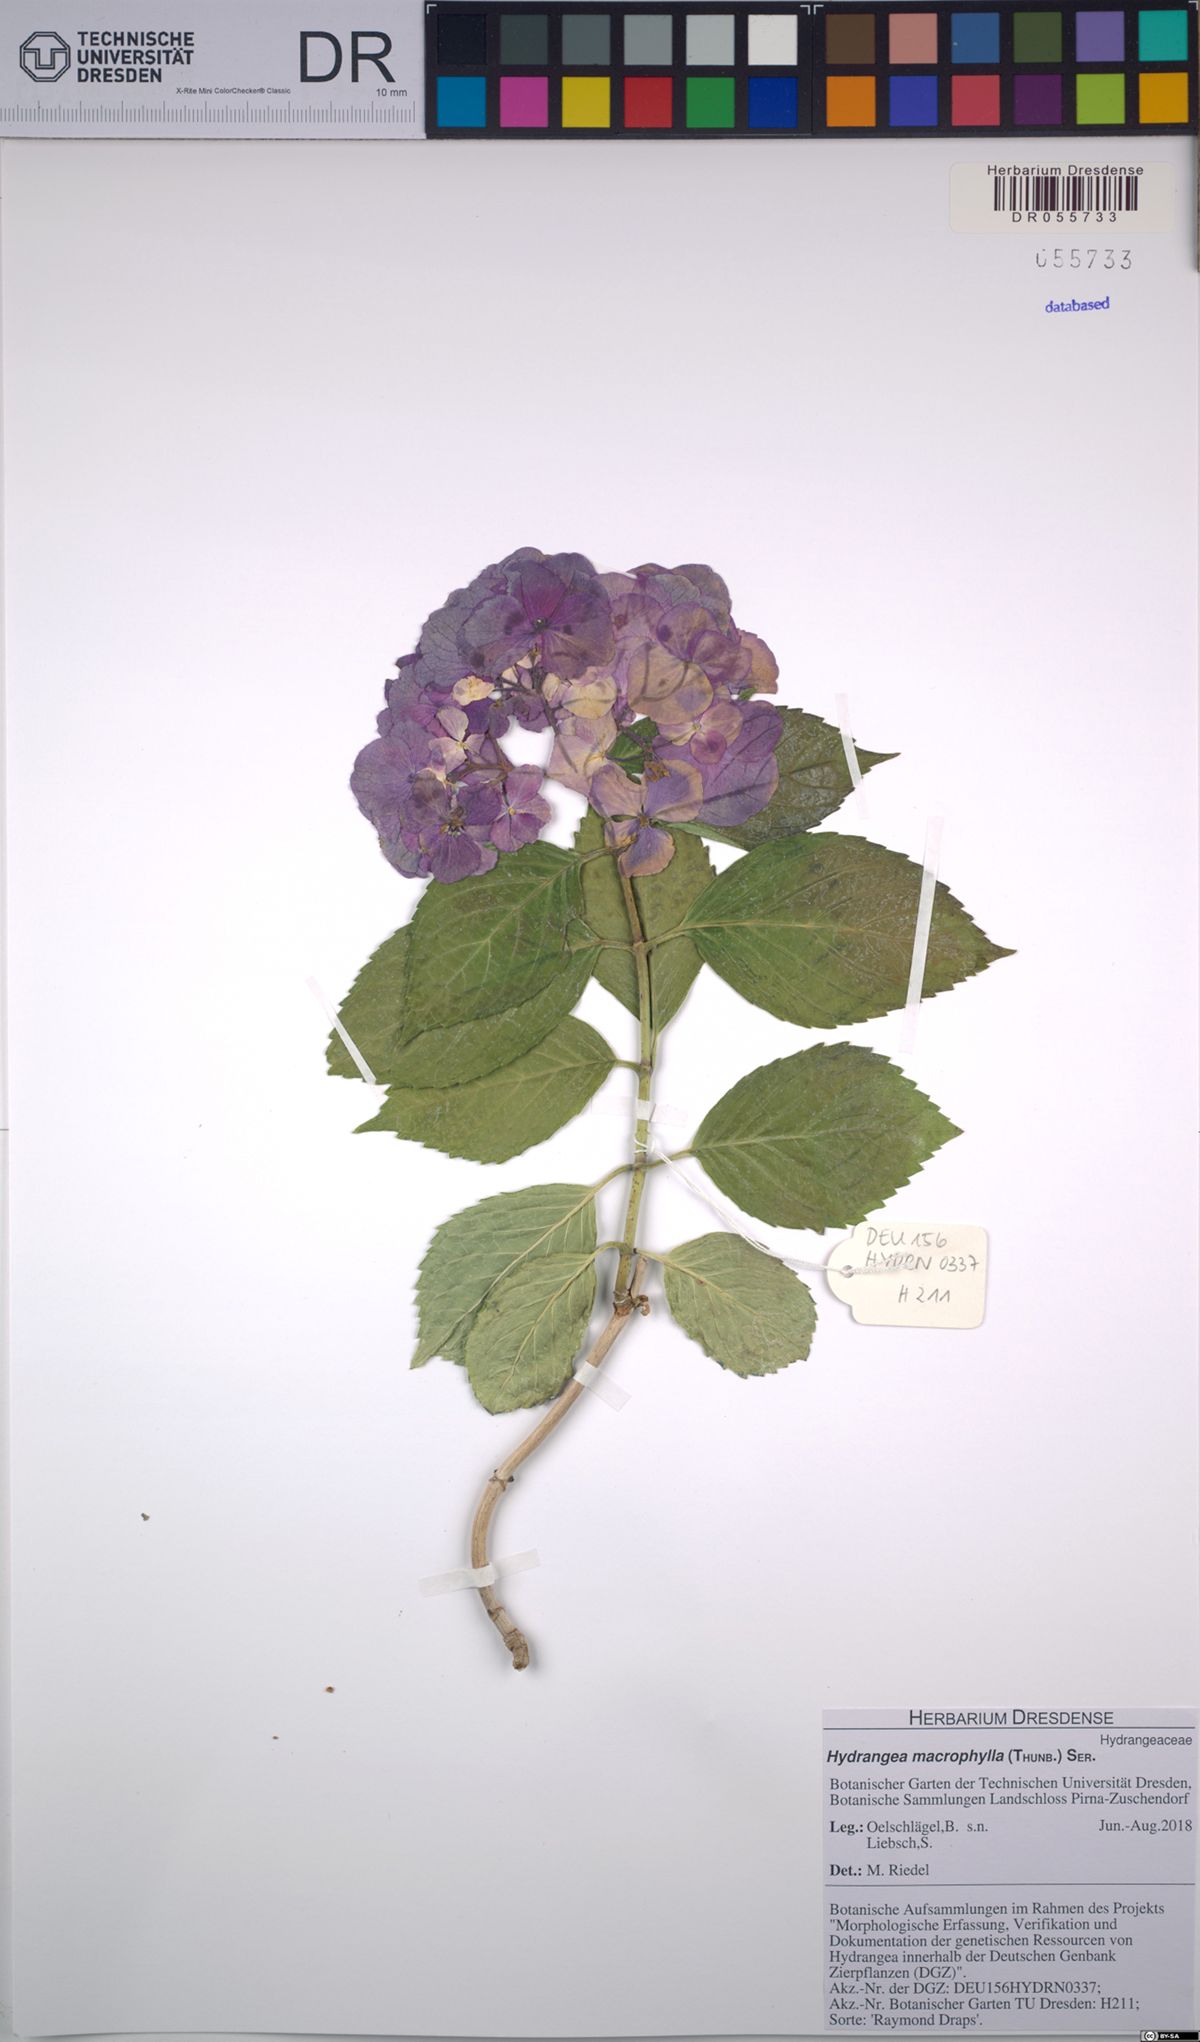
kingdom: Plantae
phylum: Tracheophyta
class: Magnoliopsida
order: Cornales
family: Hydrangeaceae
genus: Hydrangea
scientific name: Hydrangea macrophylla
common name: Hydrangea
